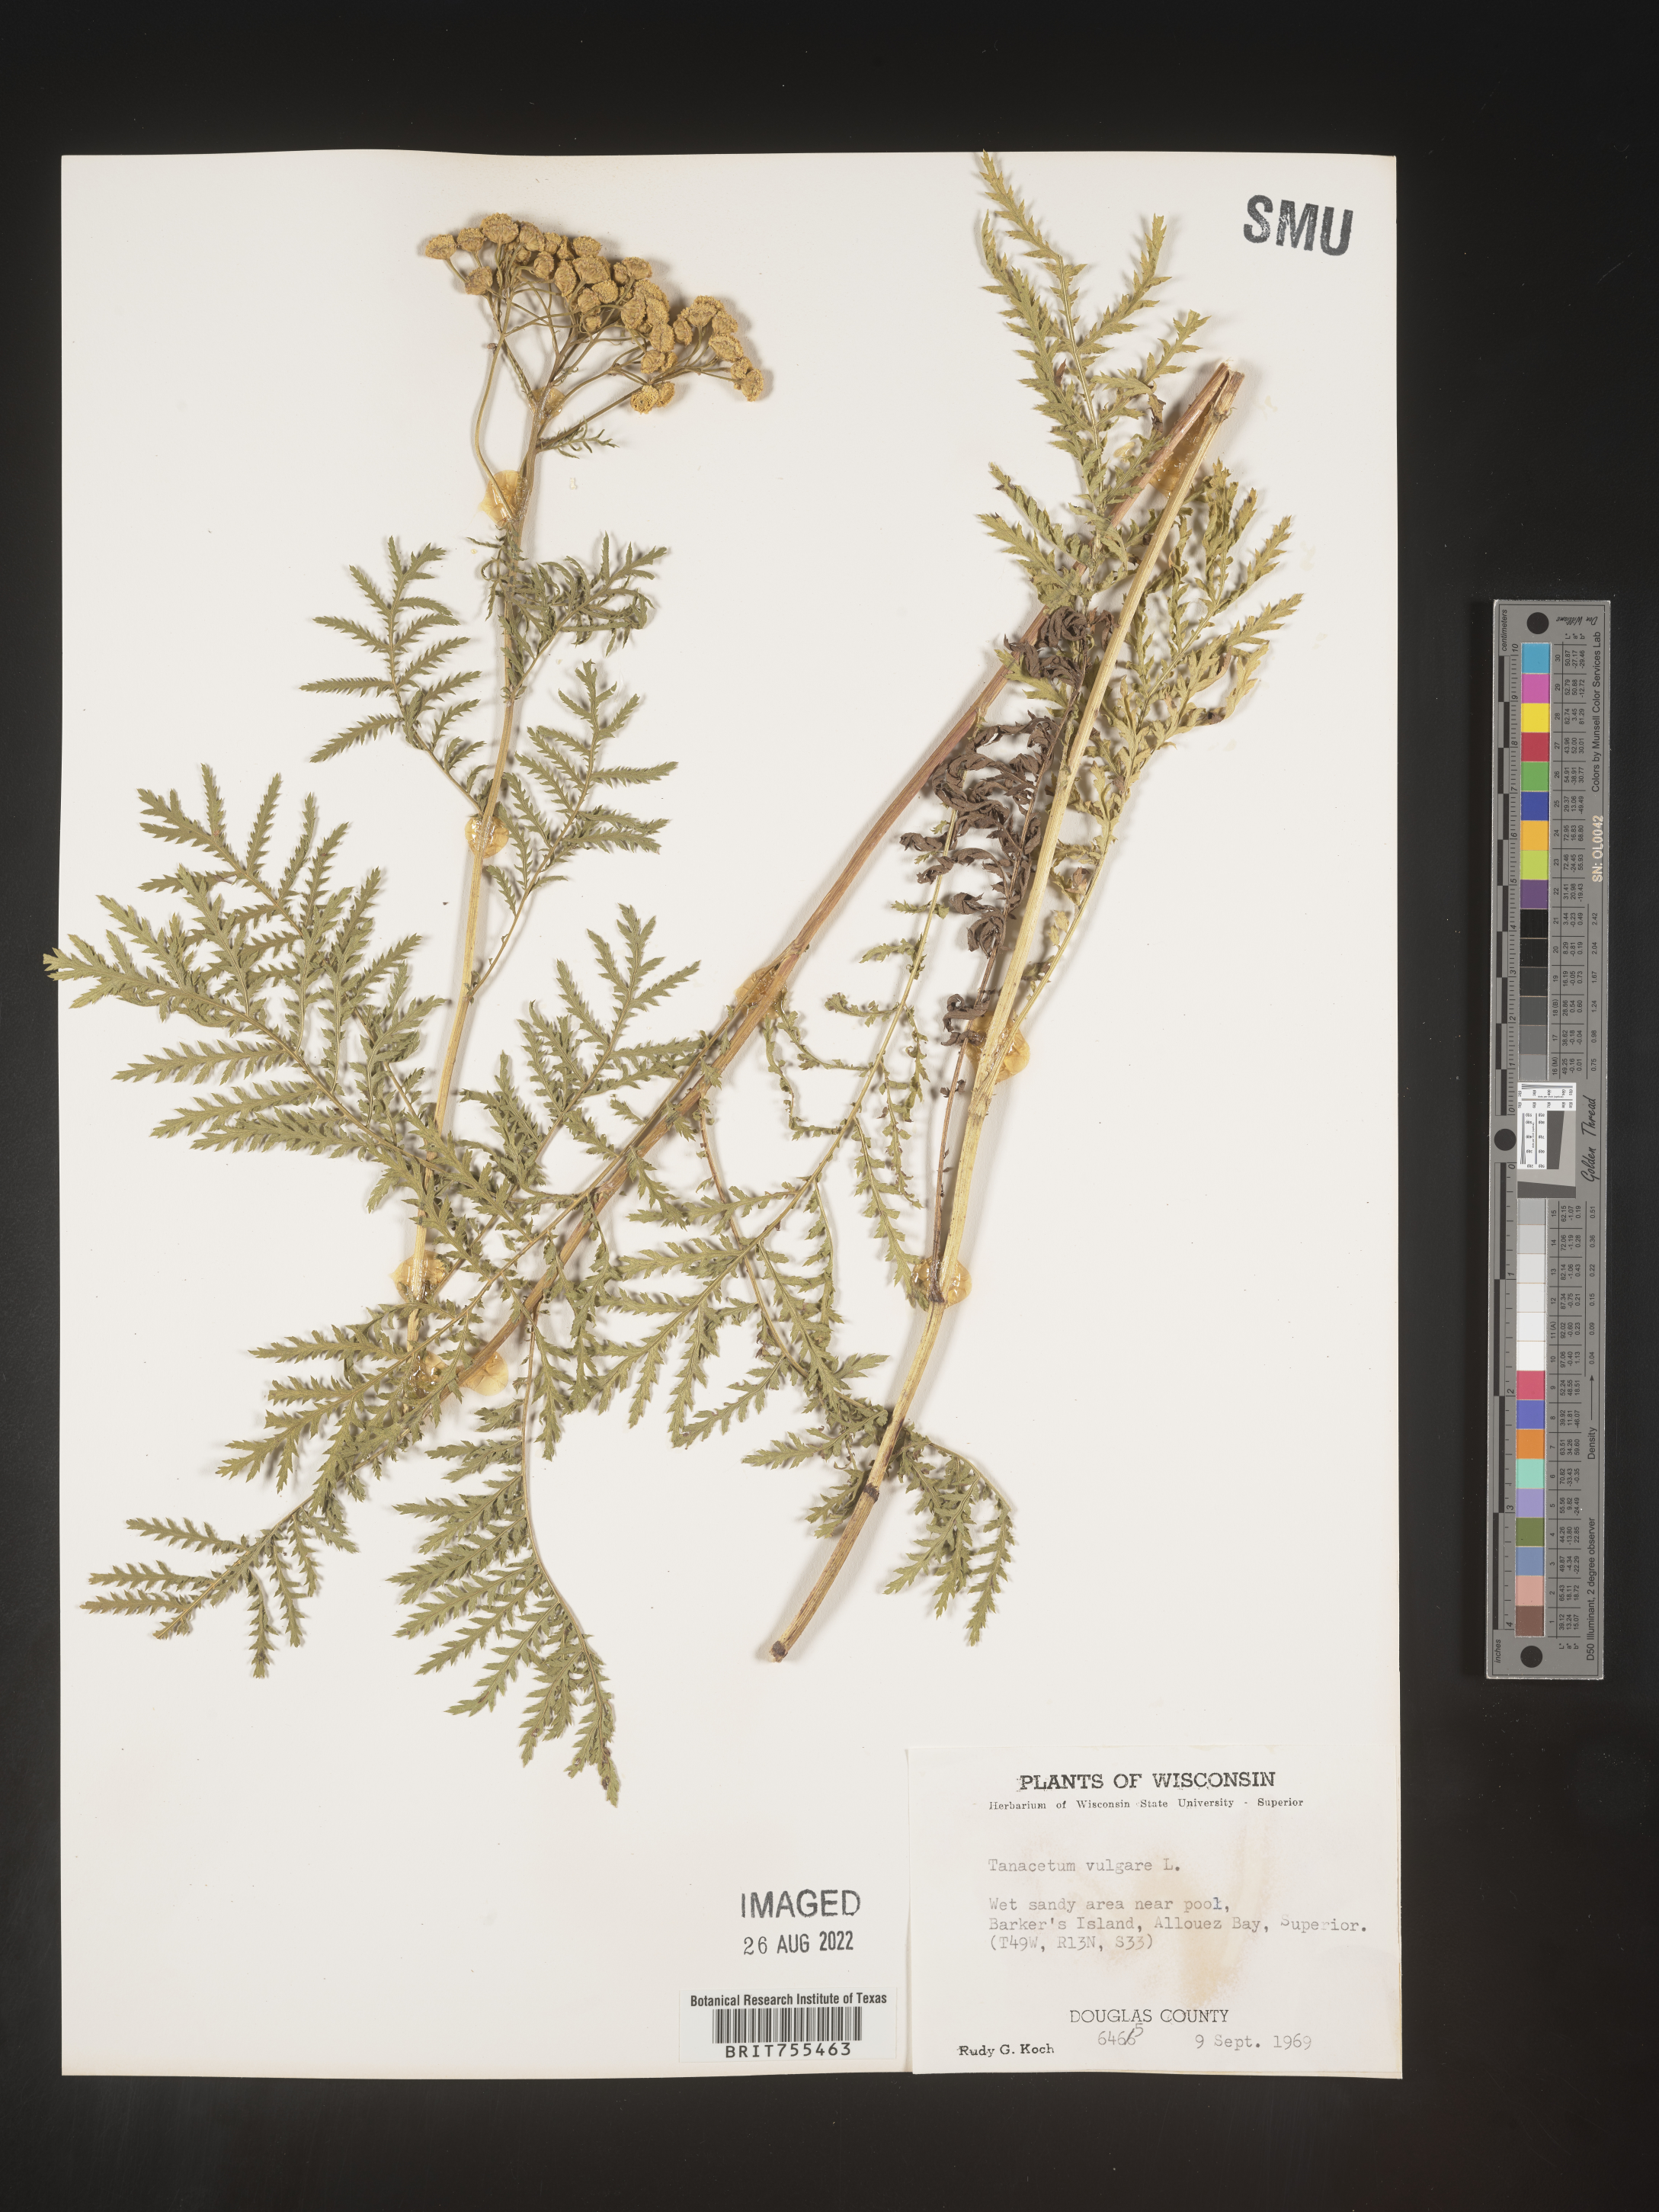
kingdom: Plantae
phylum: Tracheophyta
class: Magnoliopsida
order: Asterales
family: Asteraceae
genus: Tanacetum
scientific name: Tanacetum vulgare
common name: Common tansy
